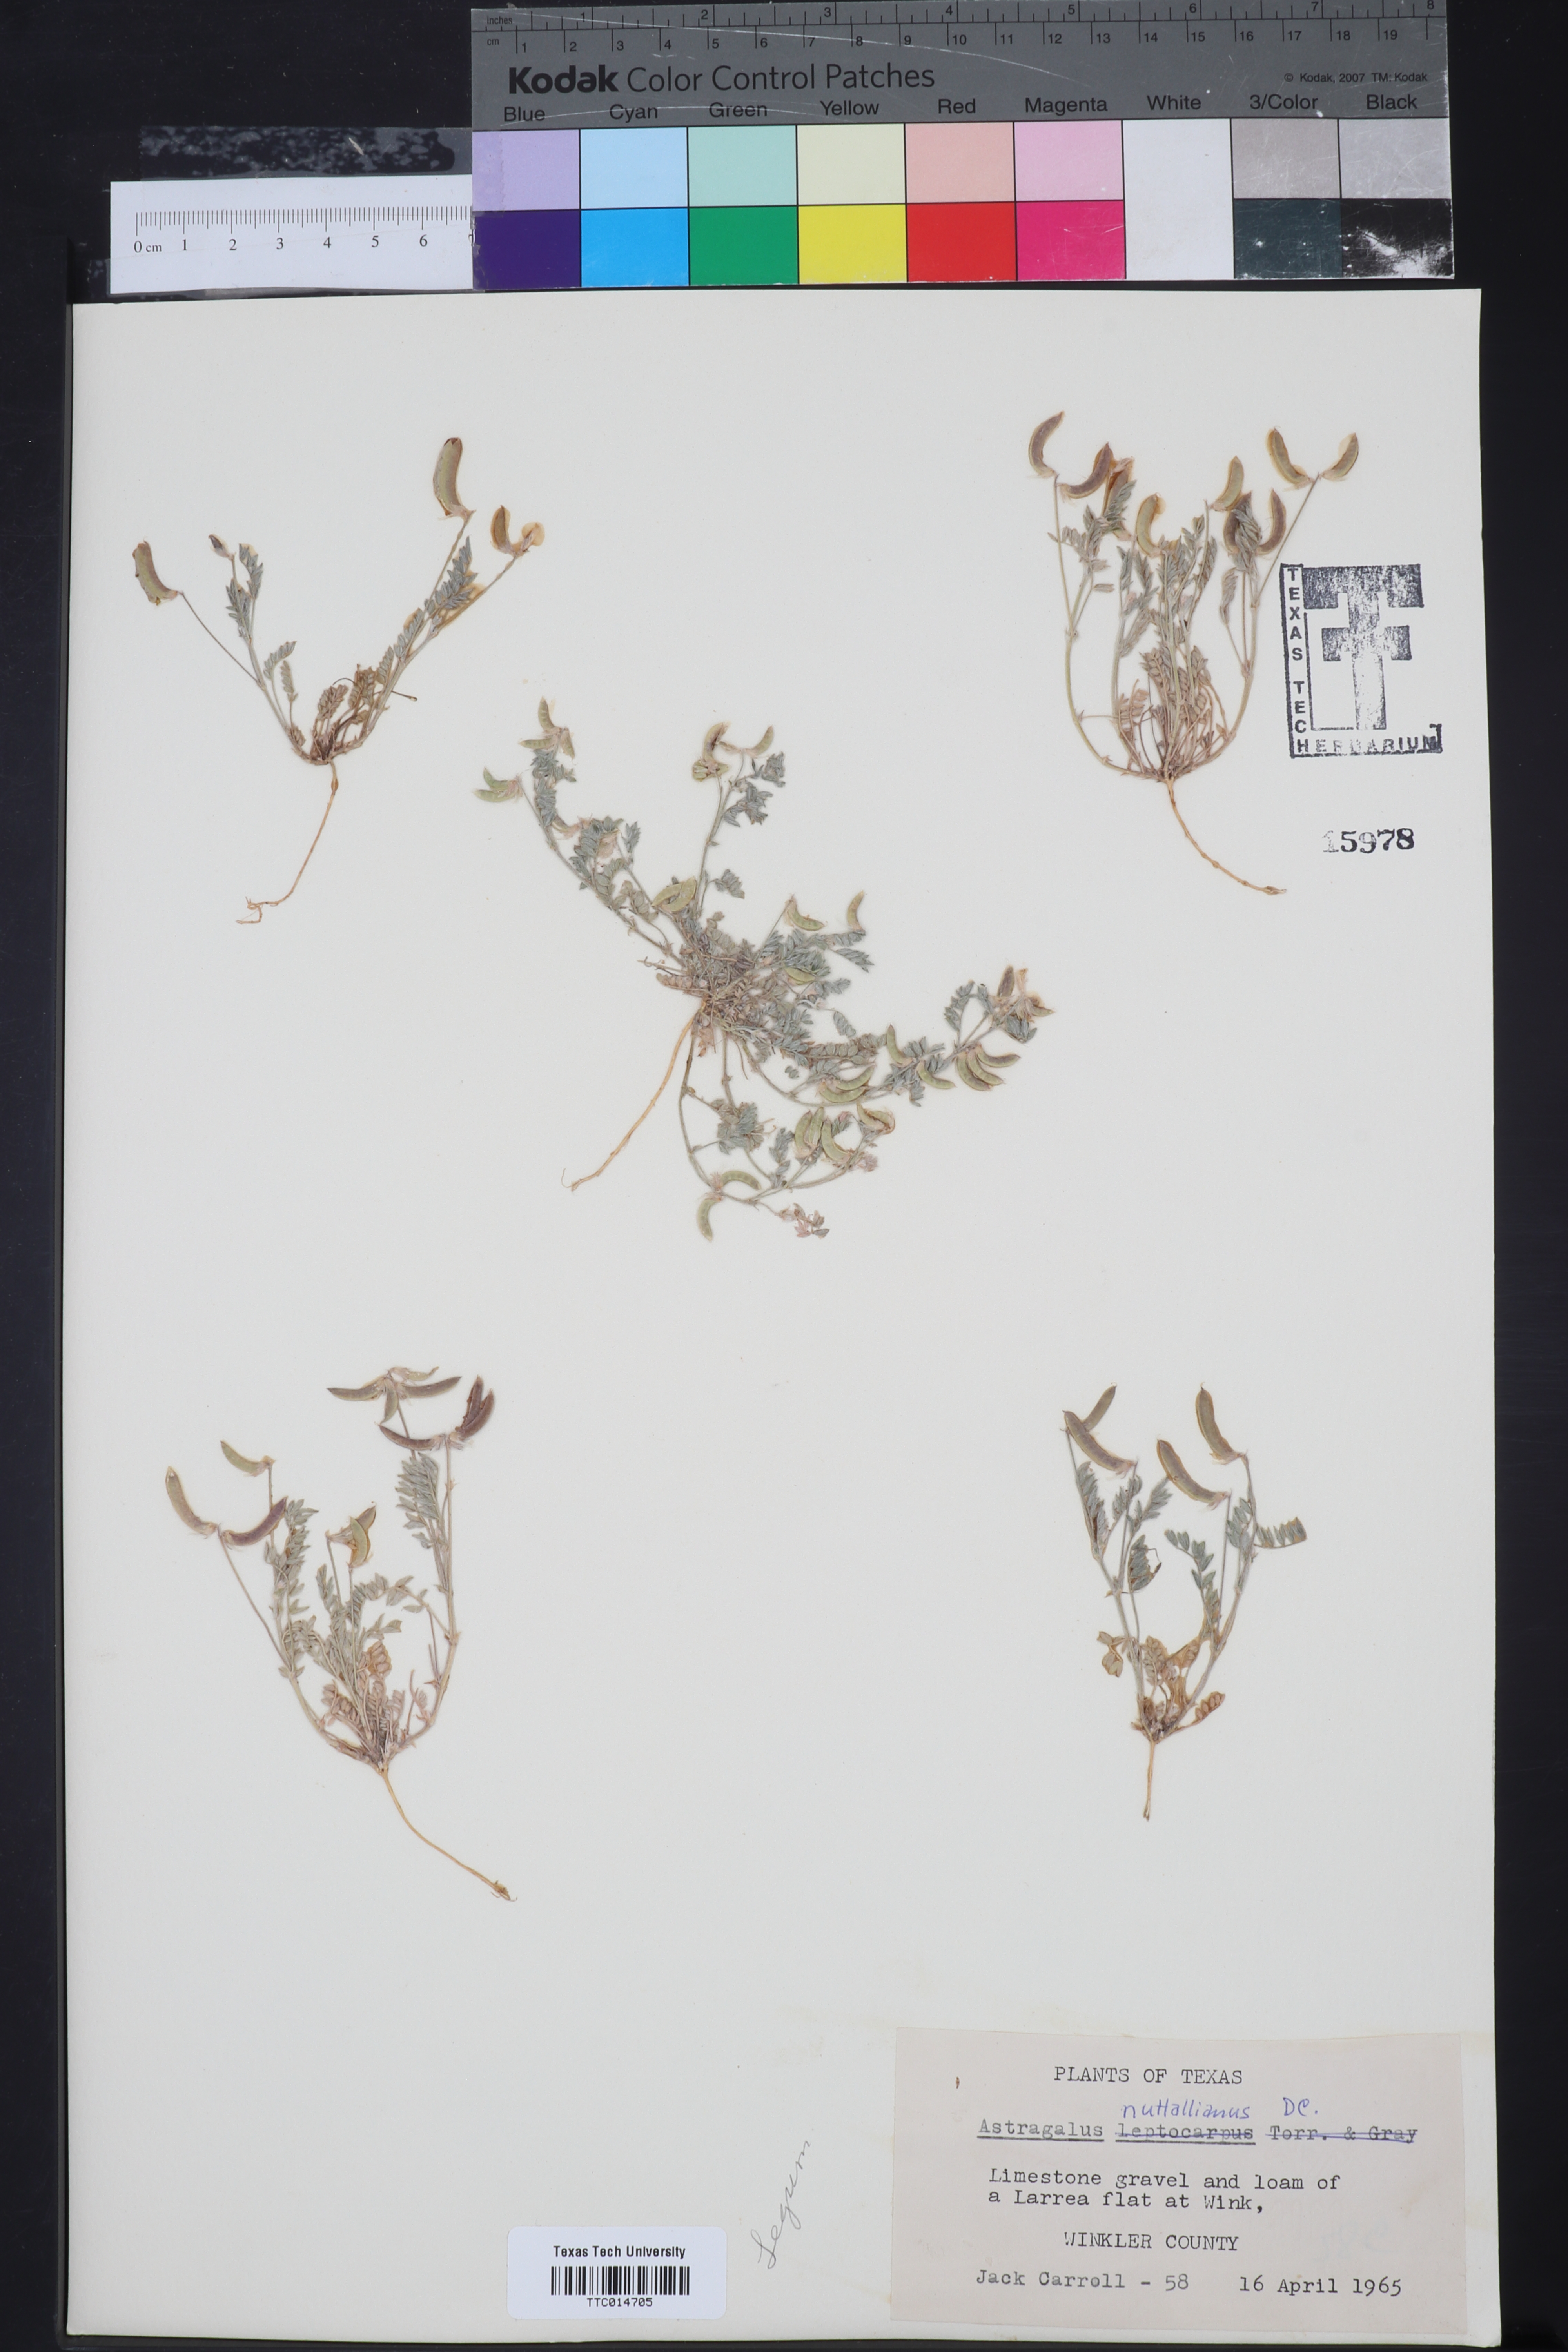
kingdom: Plantae
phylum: Tracheophyta
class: Magnoliopsida
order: Fabales
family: Fabaceae
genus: Astragalus
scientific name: Astragalus nuttallianus
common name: Smallflowered milkvetch
